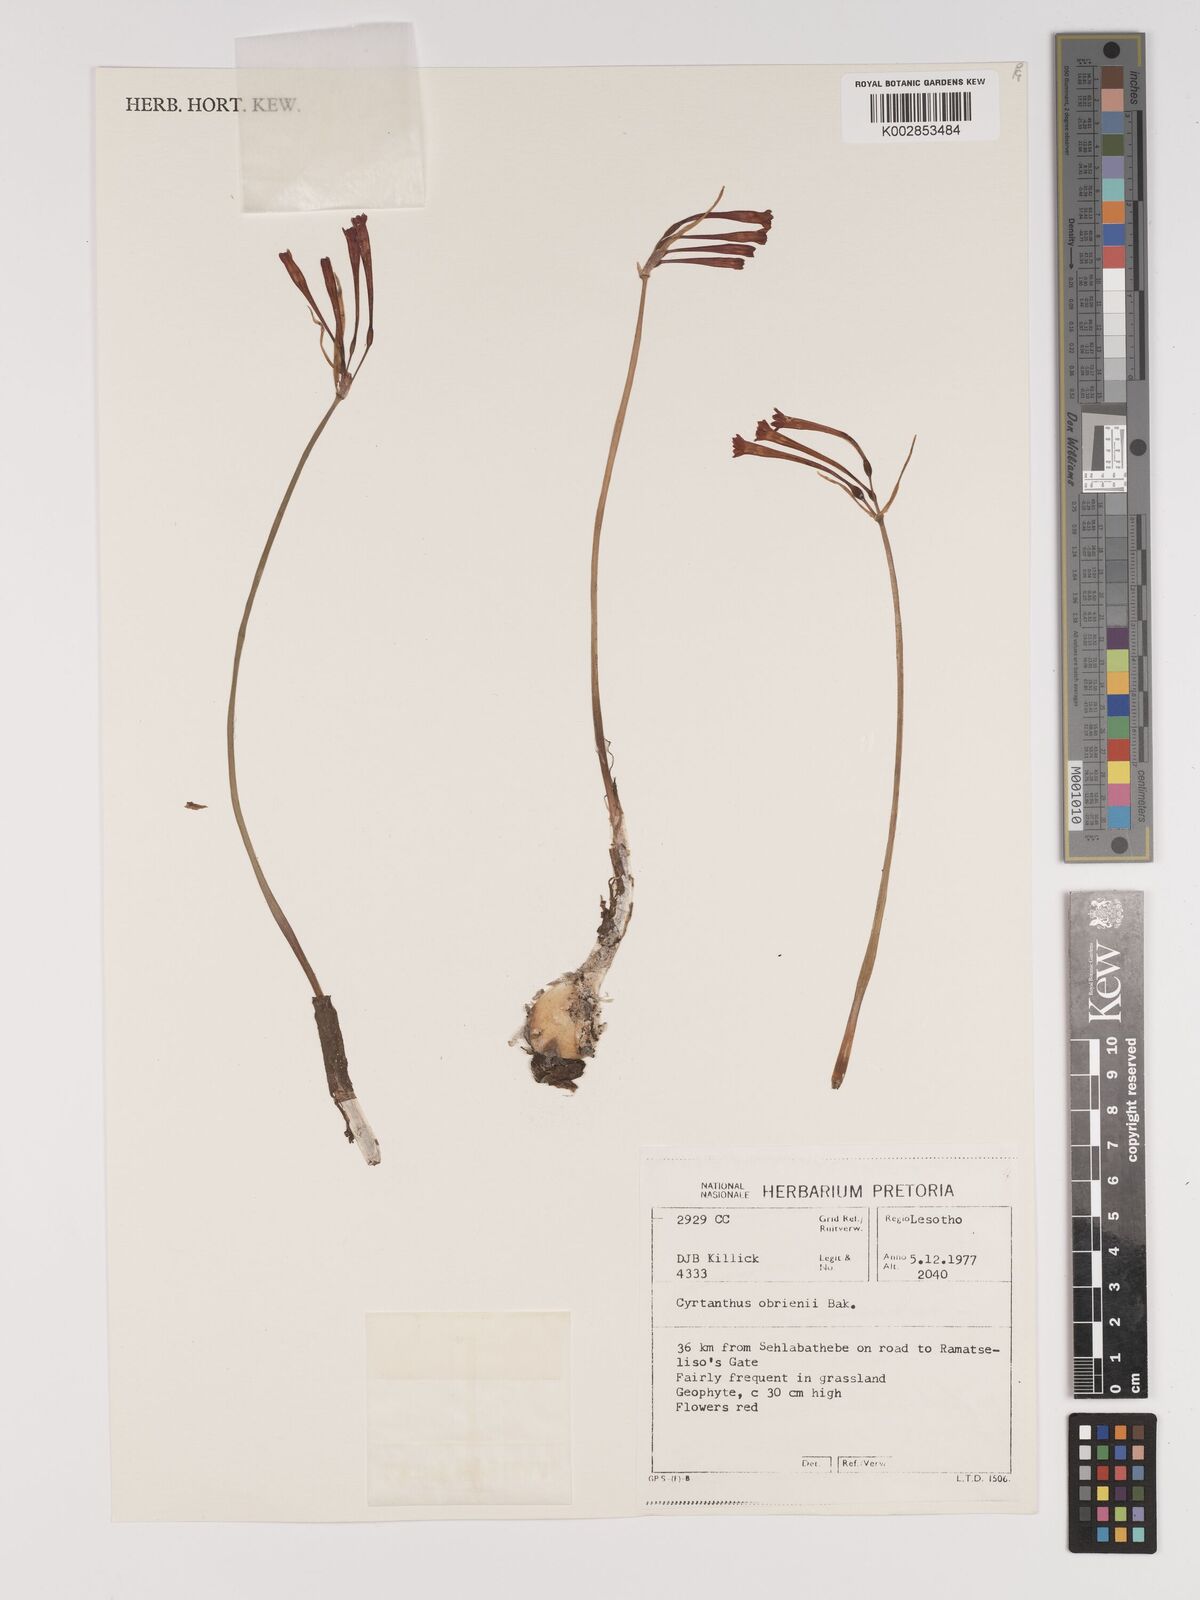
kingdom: Plantae
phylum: Tracheophyta
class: Liliopsida
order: Asparagales
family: Amaryllidaceae
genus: Cyrtanthus
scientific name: Cyrtanthus obrienii
